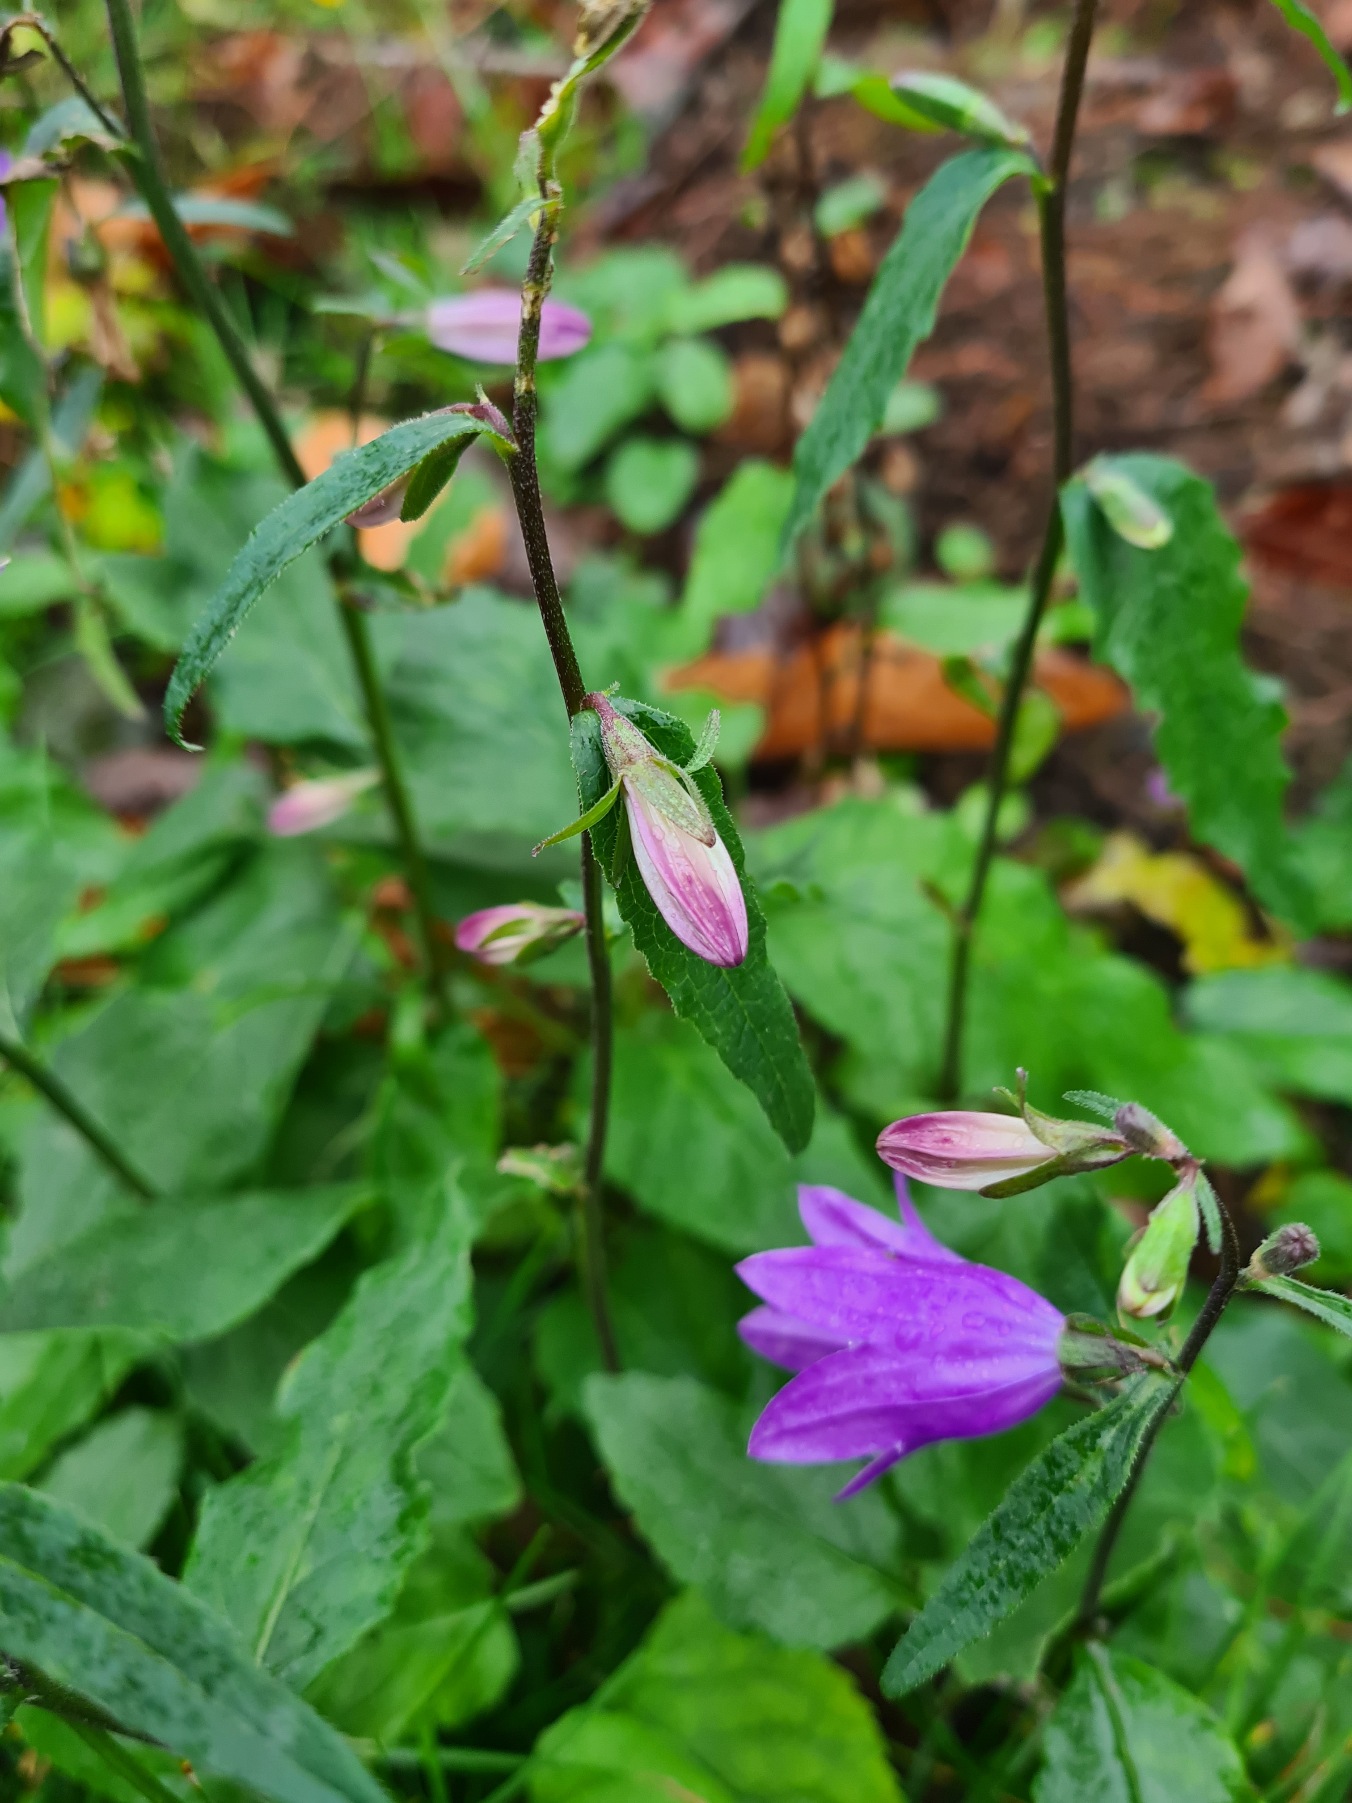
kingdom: Plantae
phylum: Tracheophyta
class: Magnoliopsida
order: Asterales
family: Campanulaceae
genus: Campanula
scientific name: Campanula rapunculoides
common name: Ensidig klokke
